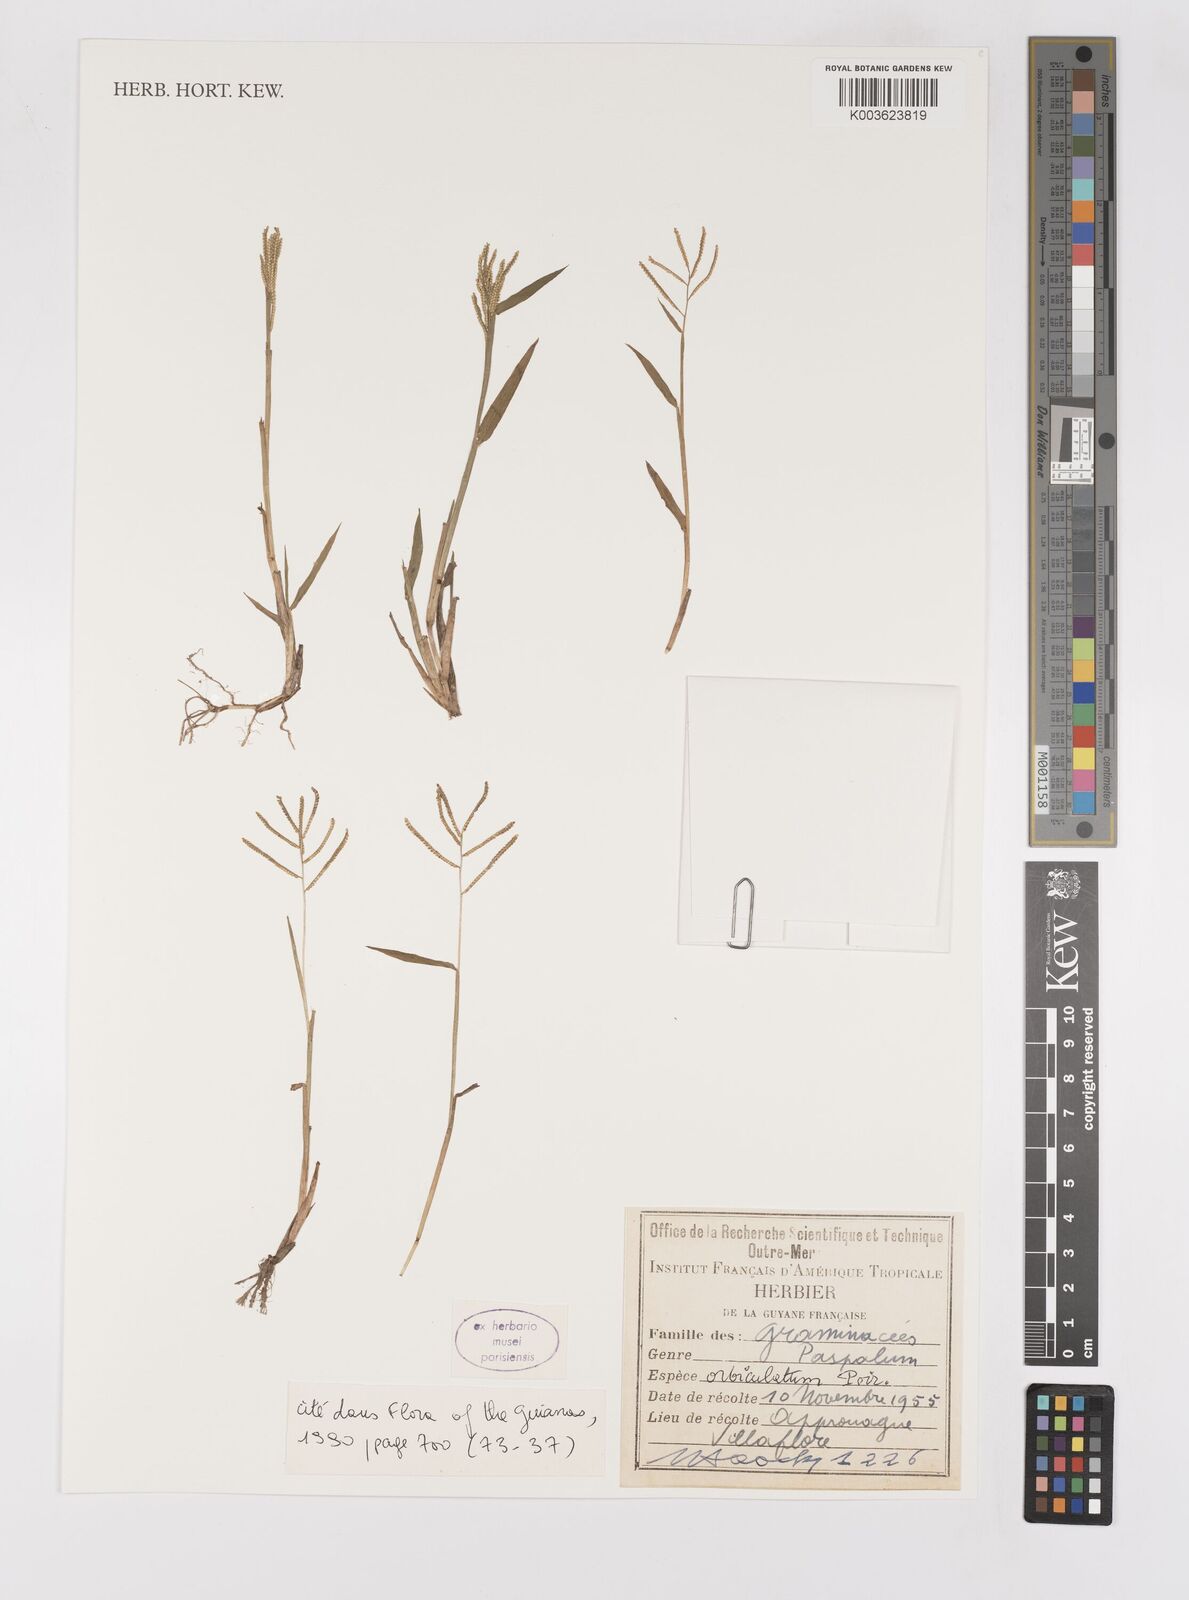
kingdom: Plantae
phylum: Tracheophyta
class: Liliopsida
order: Poales
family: Poaceae
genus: Paspalum
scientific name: Paspalum orbiculatum
